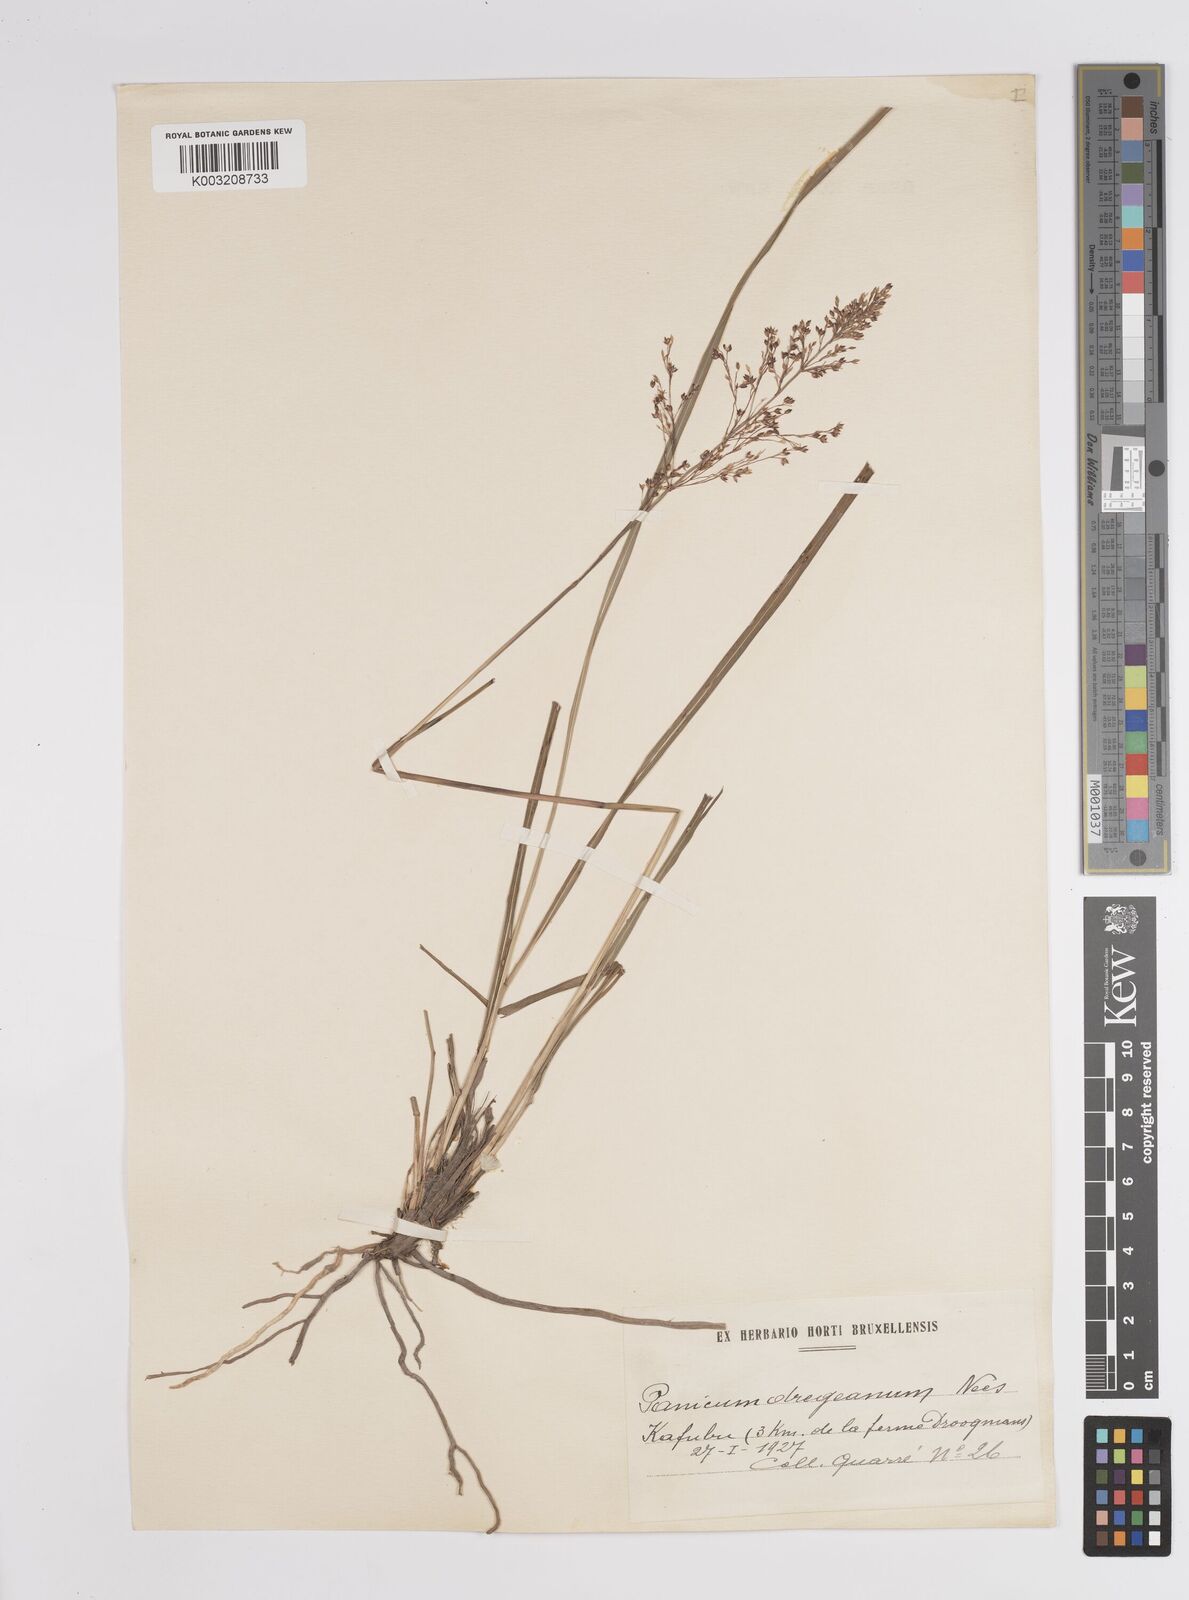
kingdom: Plantae
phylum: Tracheophyta
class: Liliopsida
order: Poales
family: Poaceae
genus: Panicum
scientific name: Panicum dregeanum
